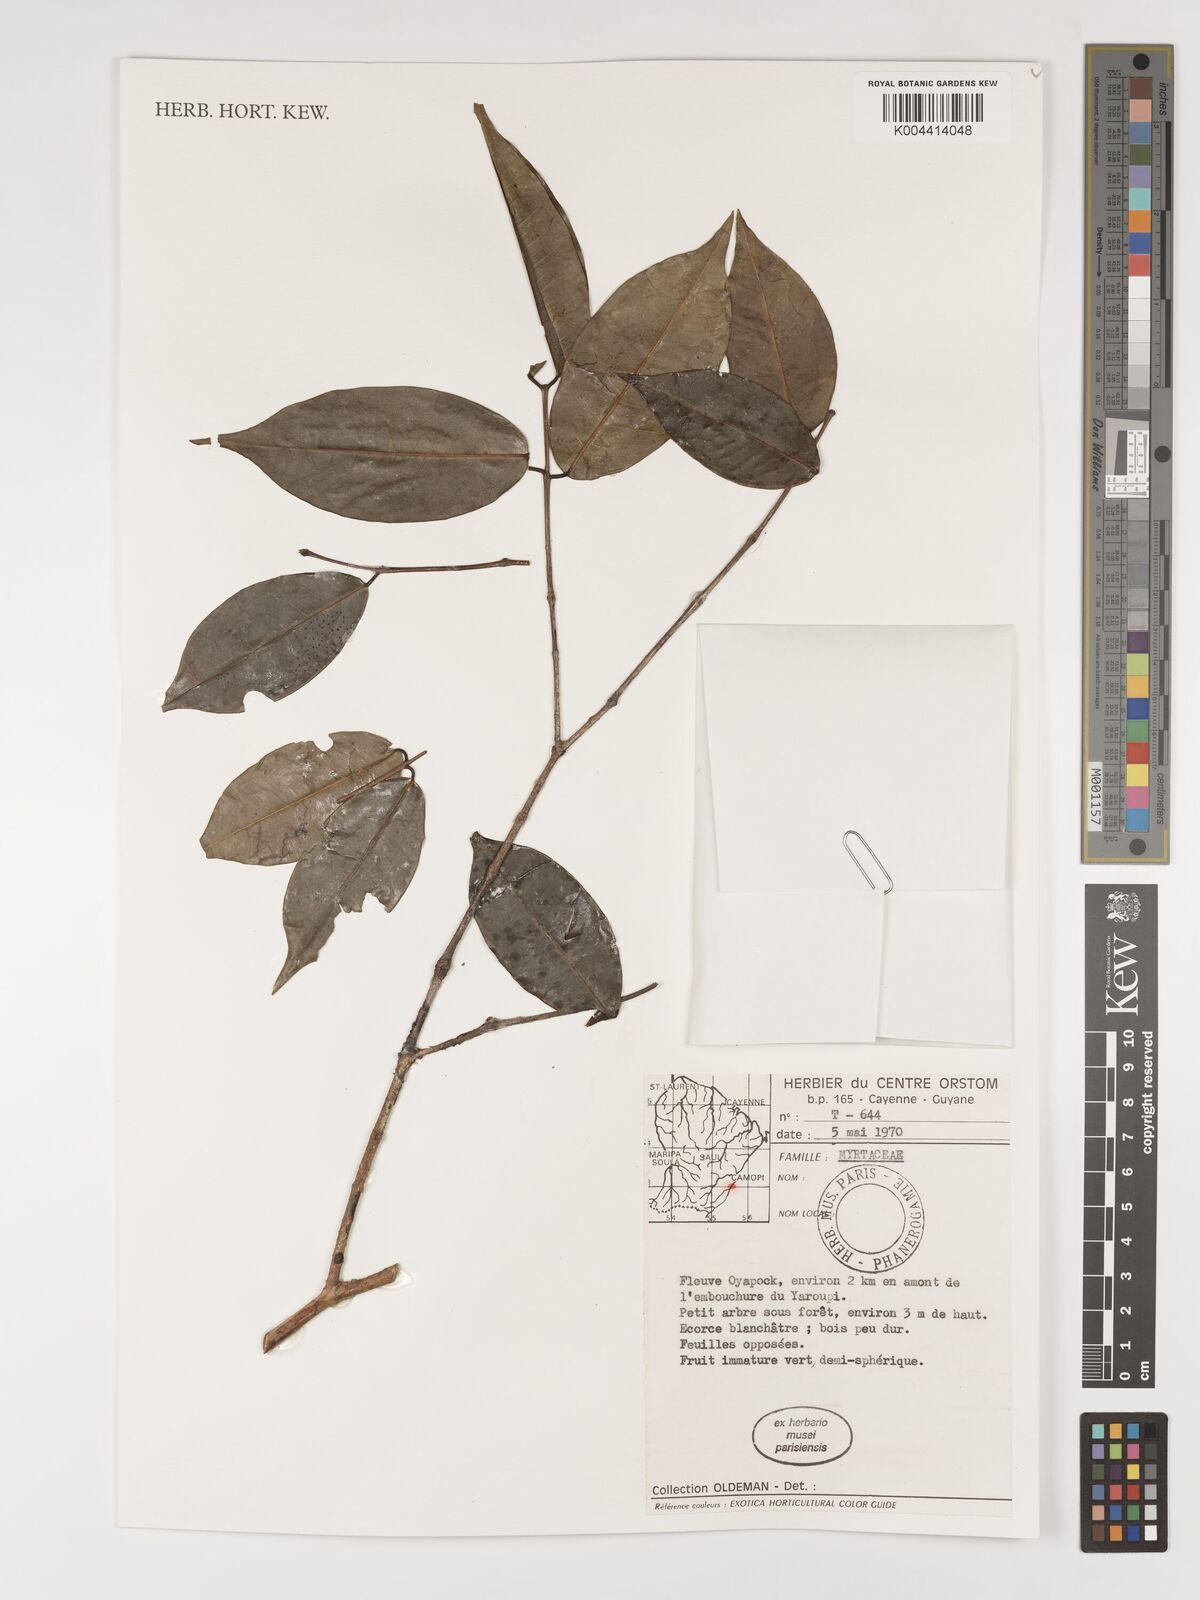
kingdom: Plantae
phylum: Tracheophyta
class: Magnoliopsida
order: Myrtales
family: Myrtaceae
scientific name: Myrtaceae
